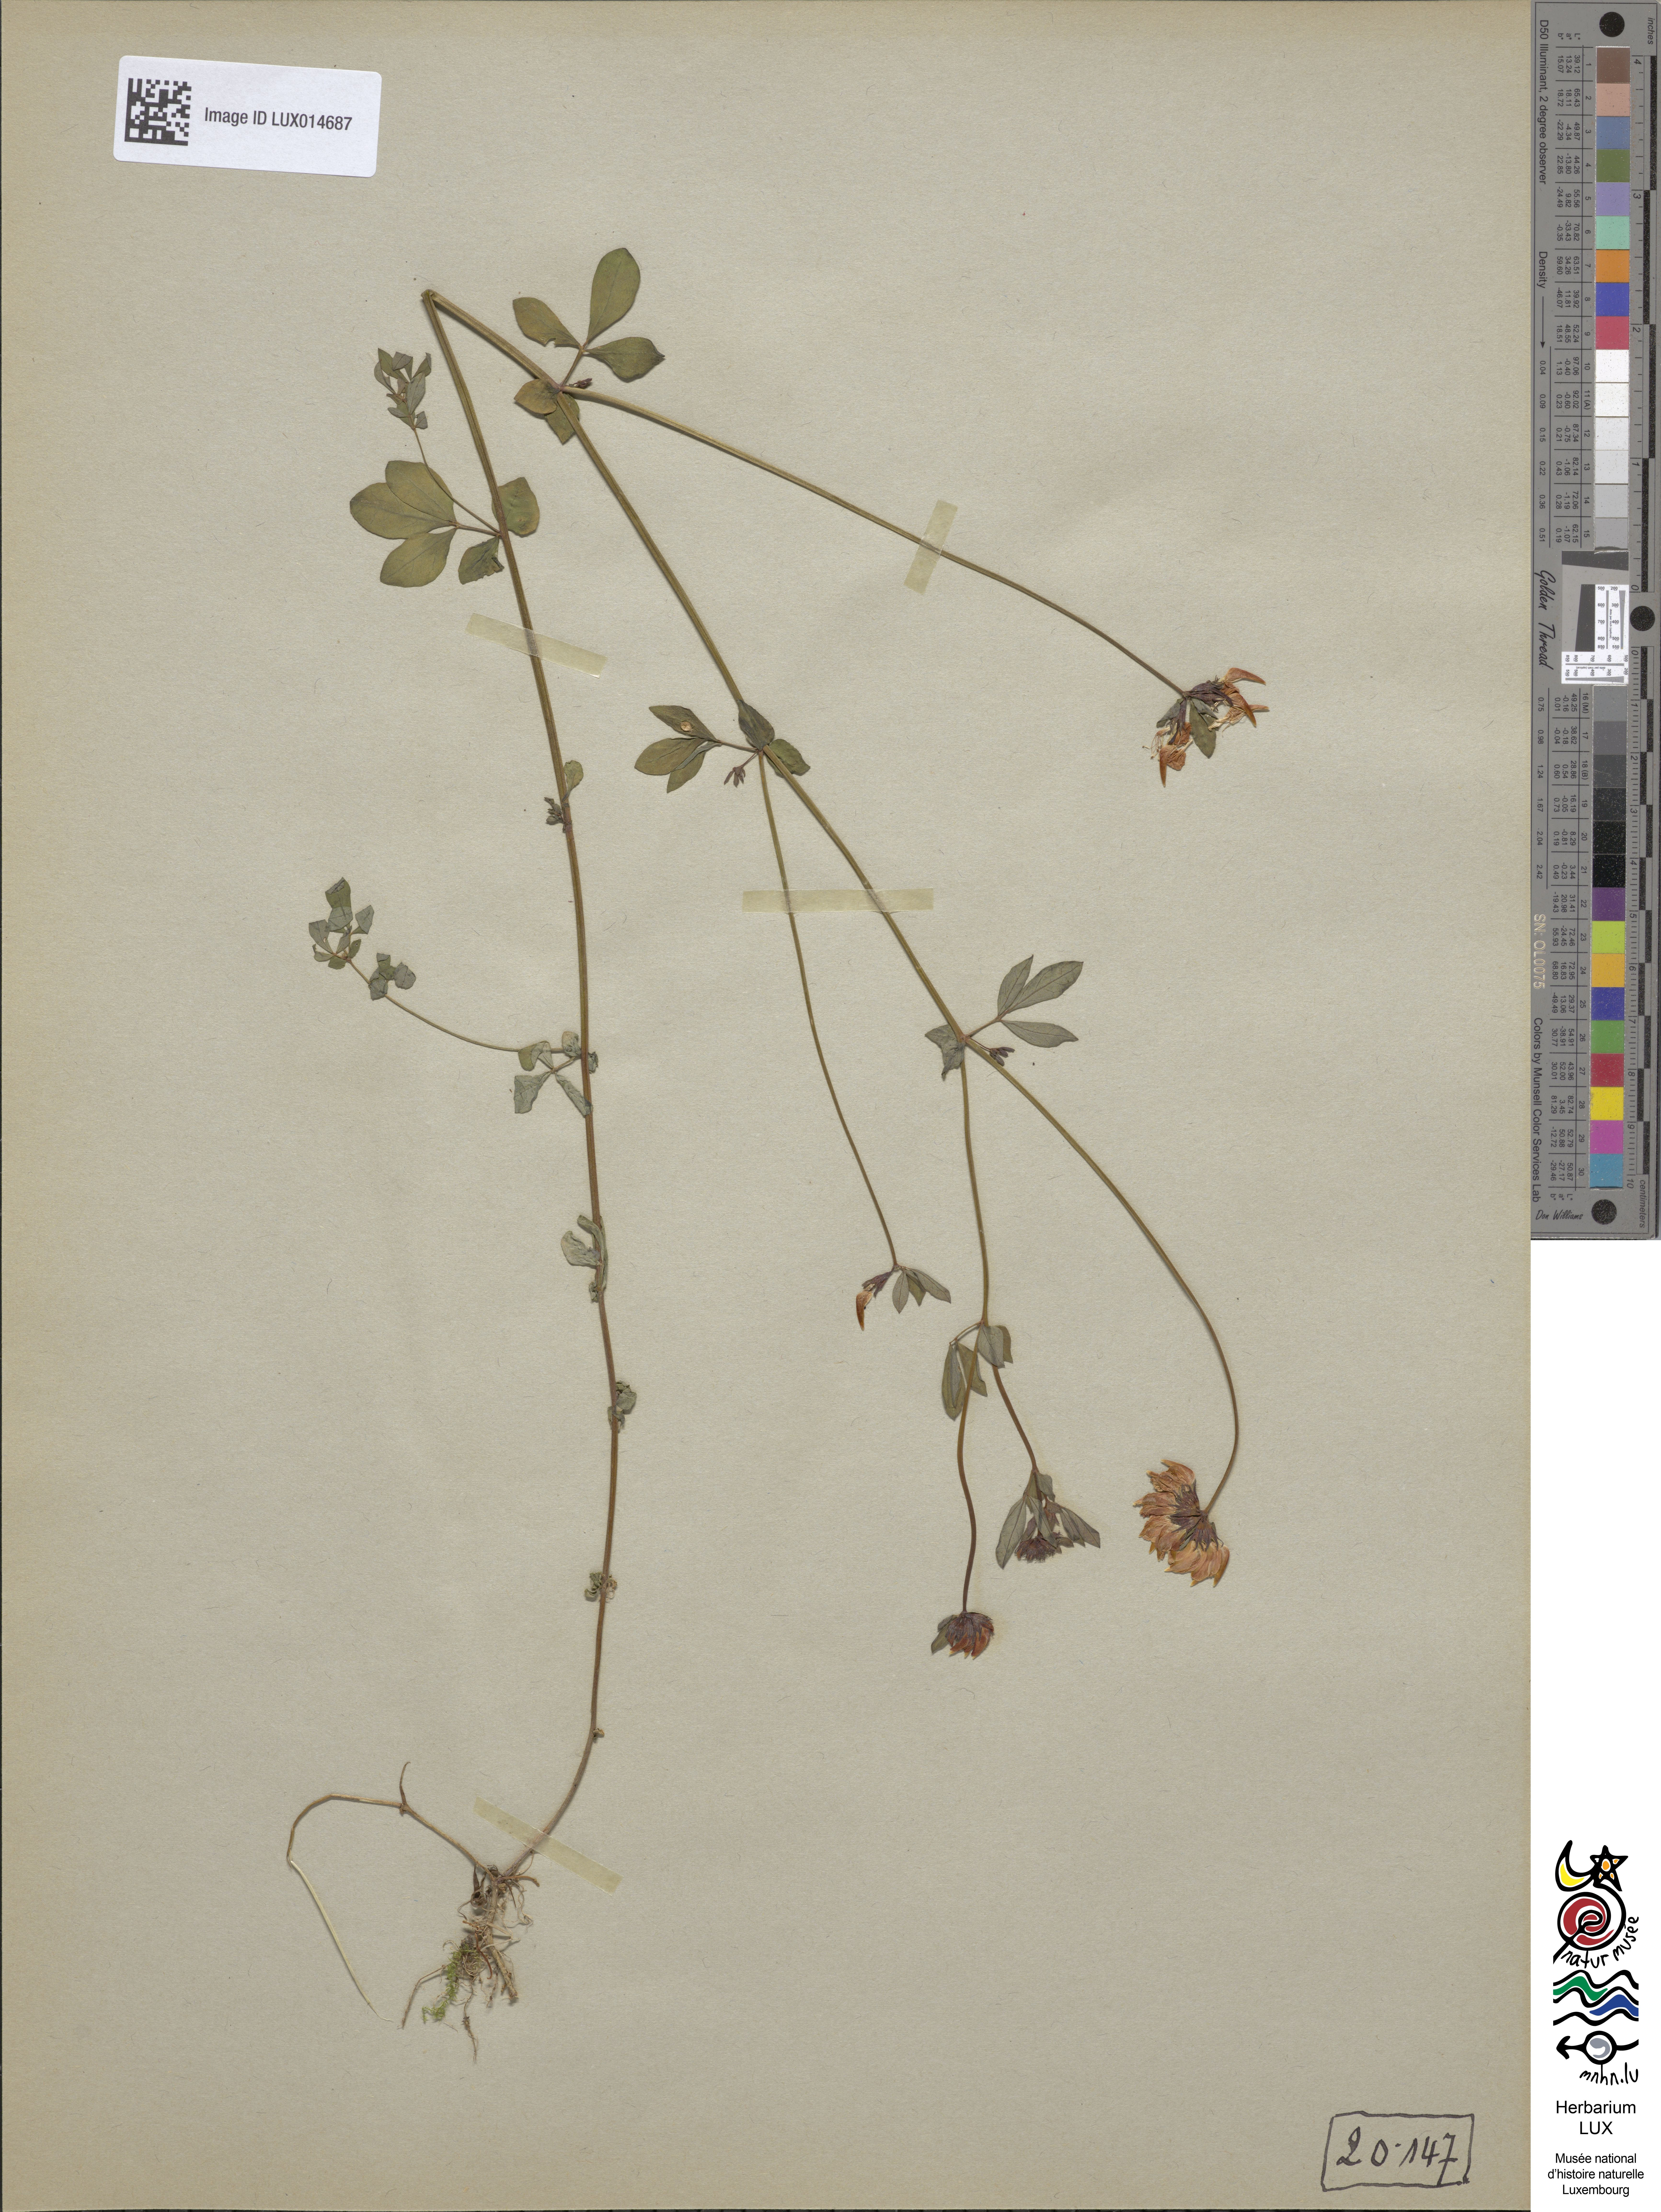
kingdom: Plantae
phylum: Tracheophyta
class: Magnoliopsida
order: Fabales
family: Fabaceae
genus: Lotus
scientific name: Lotus pedunculatus
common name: Greater birdsfoot-trefoil
